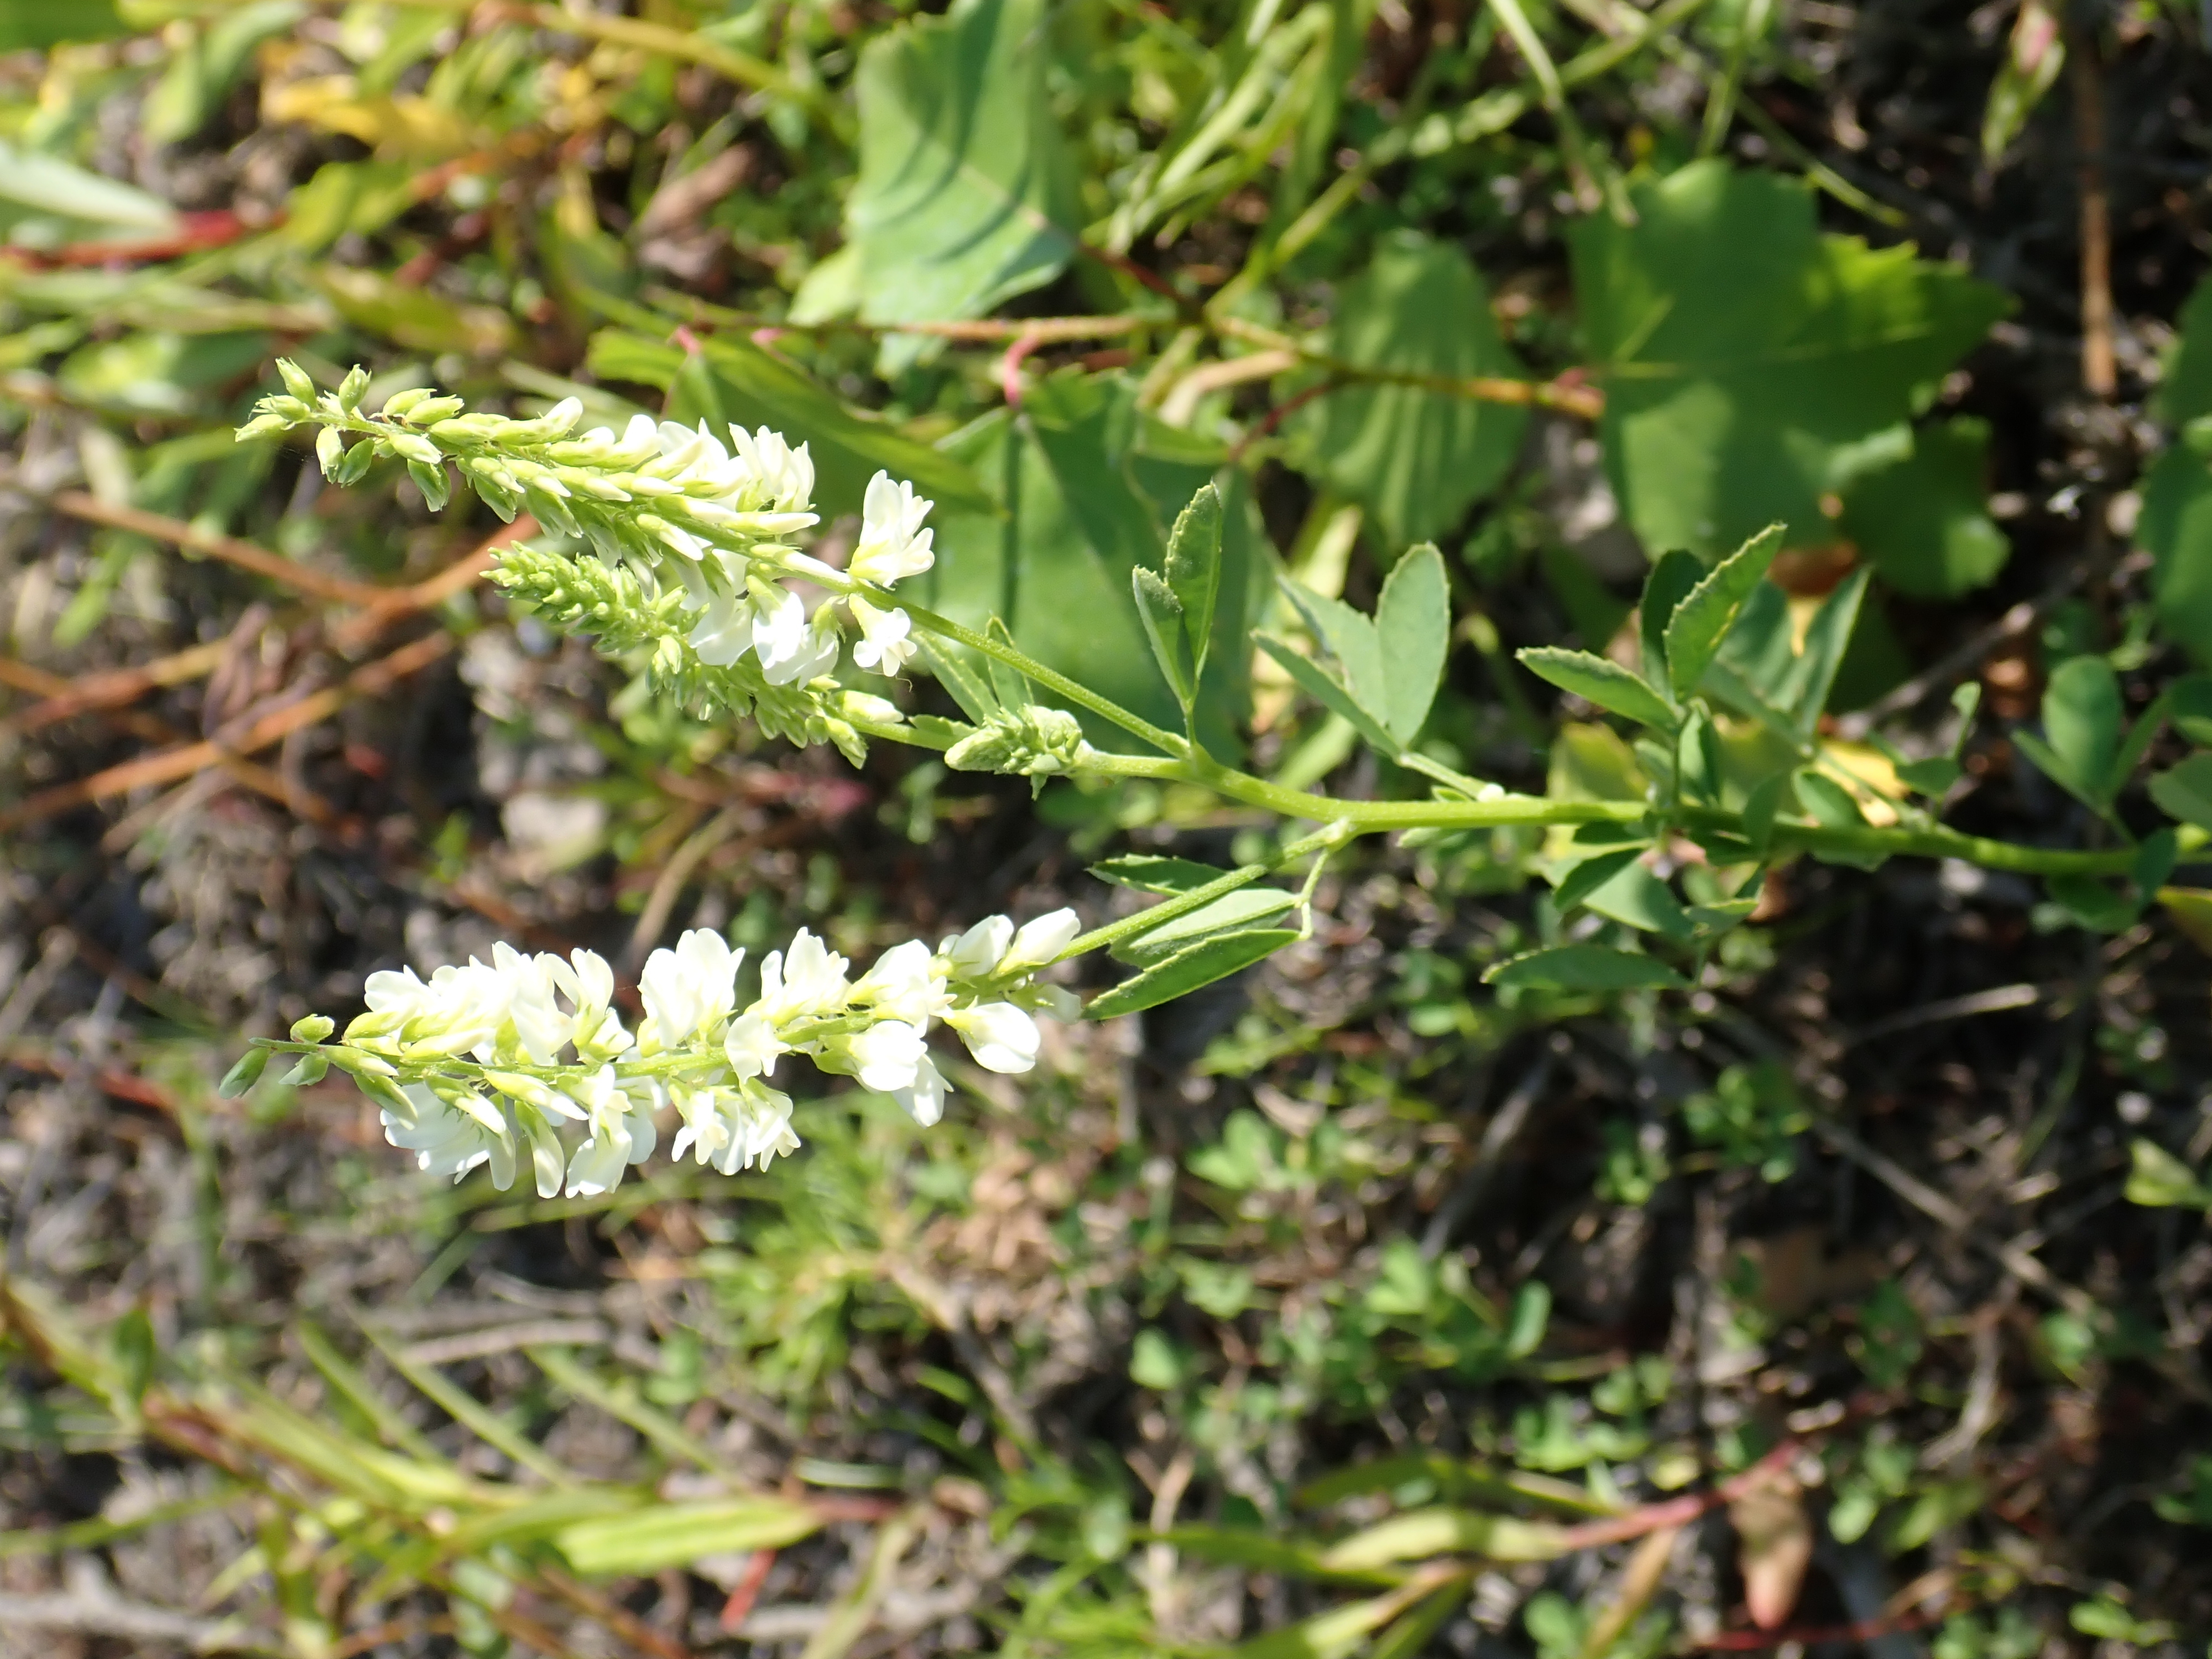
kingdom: Plantae
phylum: Tracheophyta
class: Magnoliopsida
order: Fabales
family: Fabaceae
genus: Melilotus
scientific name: Melilotus albus
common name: White melilot
